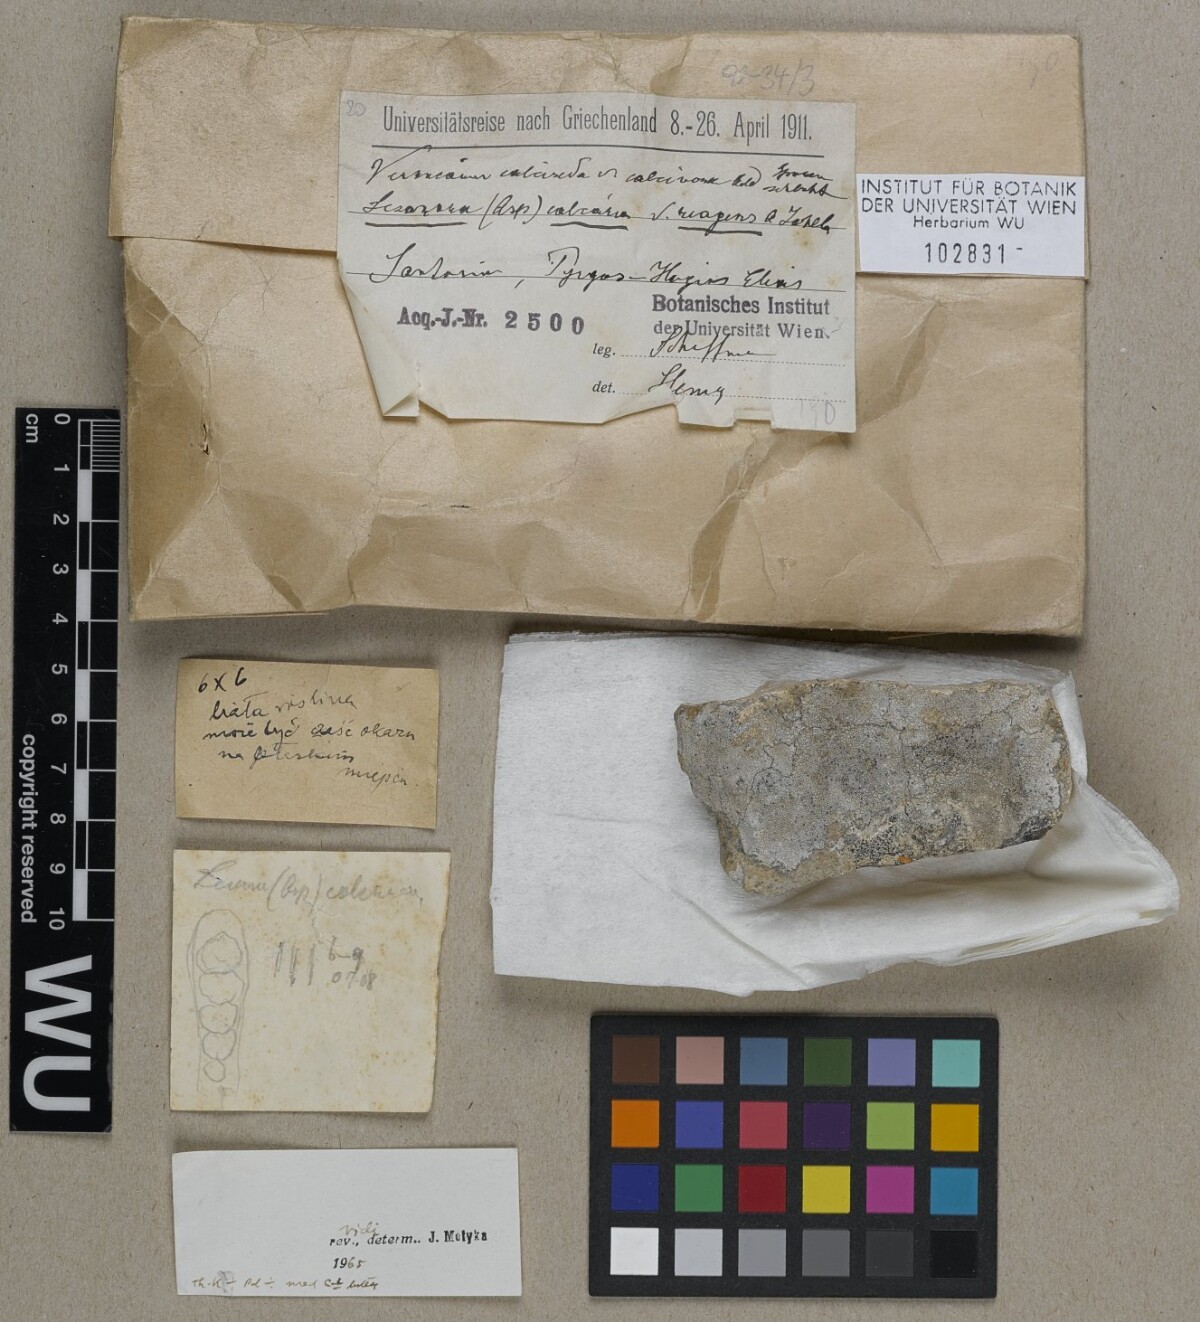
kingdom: Fungi
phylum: Ascomycota
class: Lecanoromycetes
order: Pertusariales
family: Megasporaceae
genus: Aspicilia
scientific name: Aspicilia reagens
